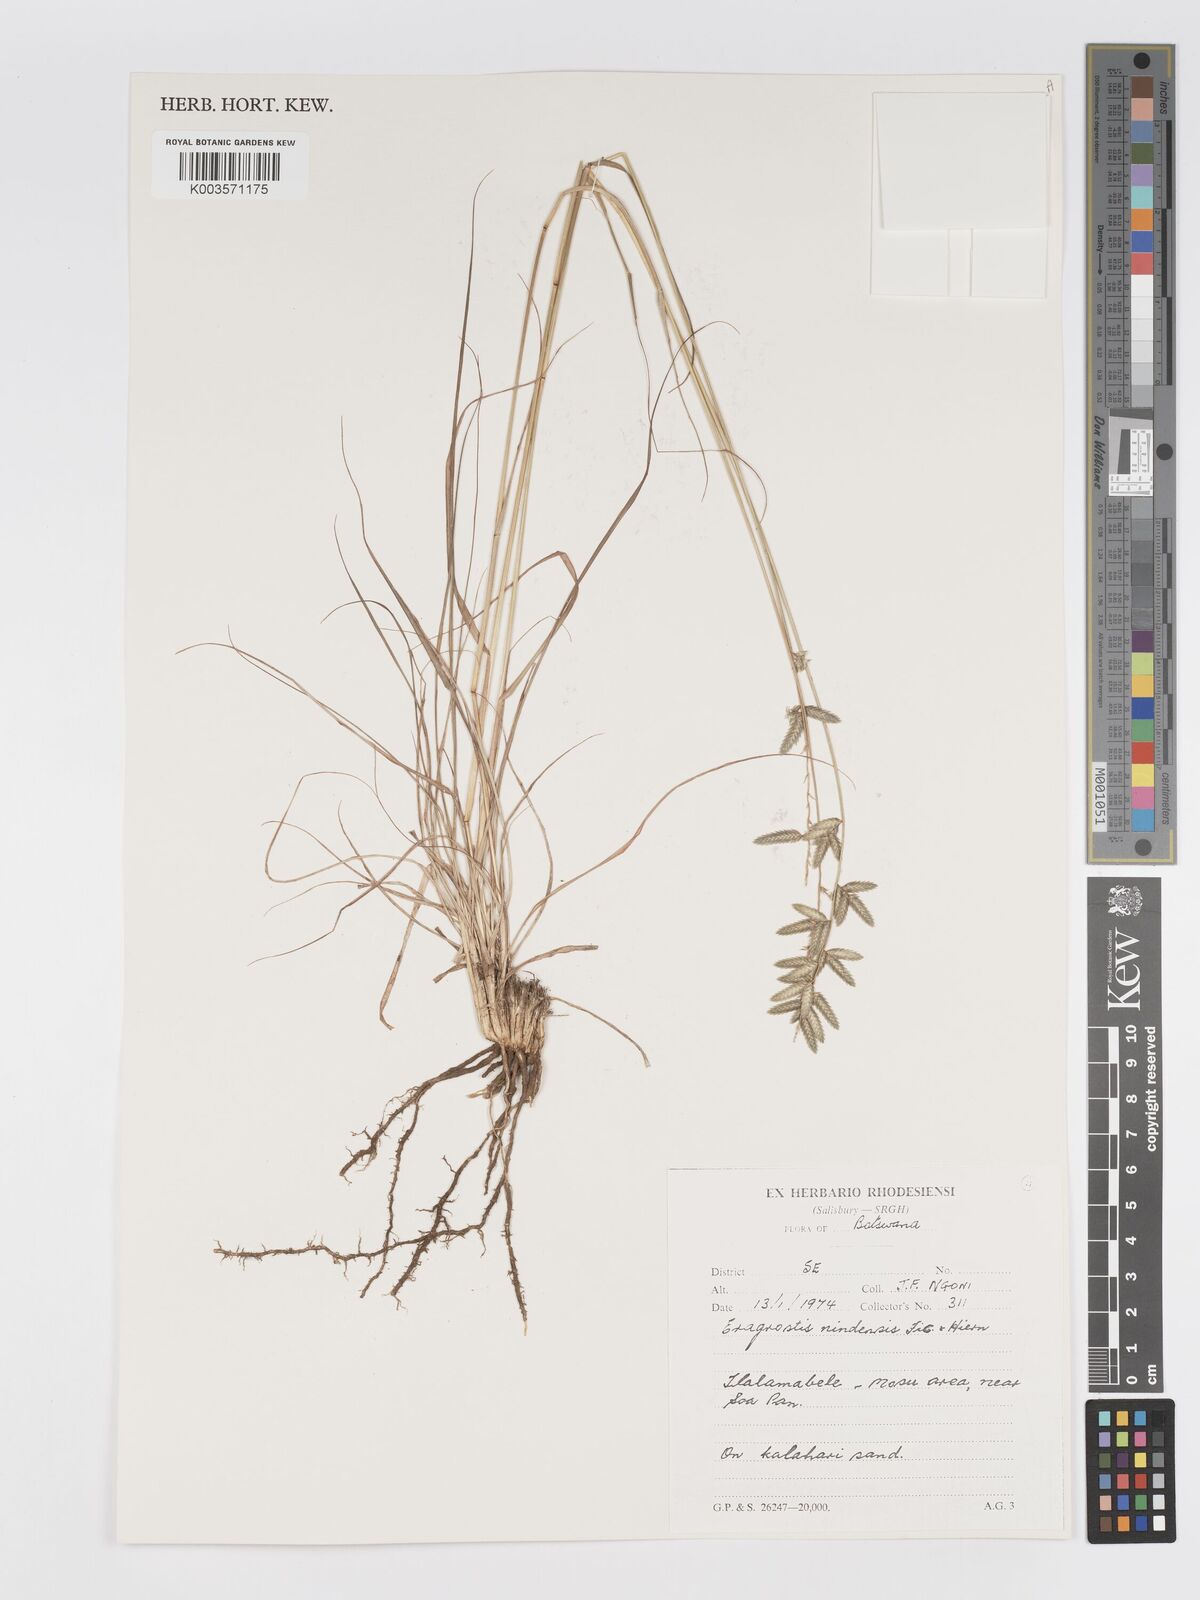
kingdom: Plantae
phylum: Tracheophyta
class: Liliopsida
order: Poales
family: Poaceae
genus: Eragrostis
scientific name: Eragrostis nindensis
